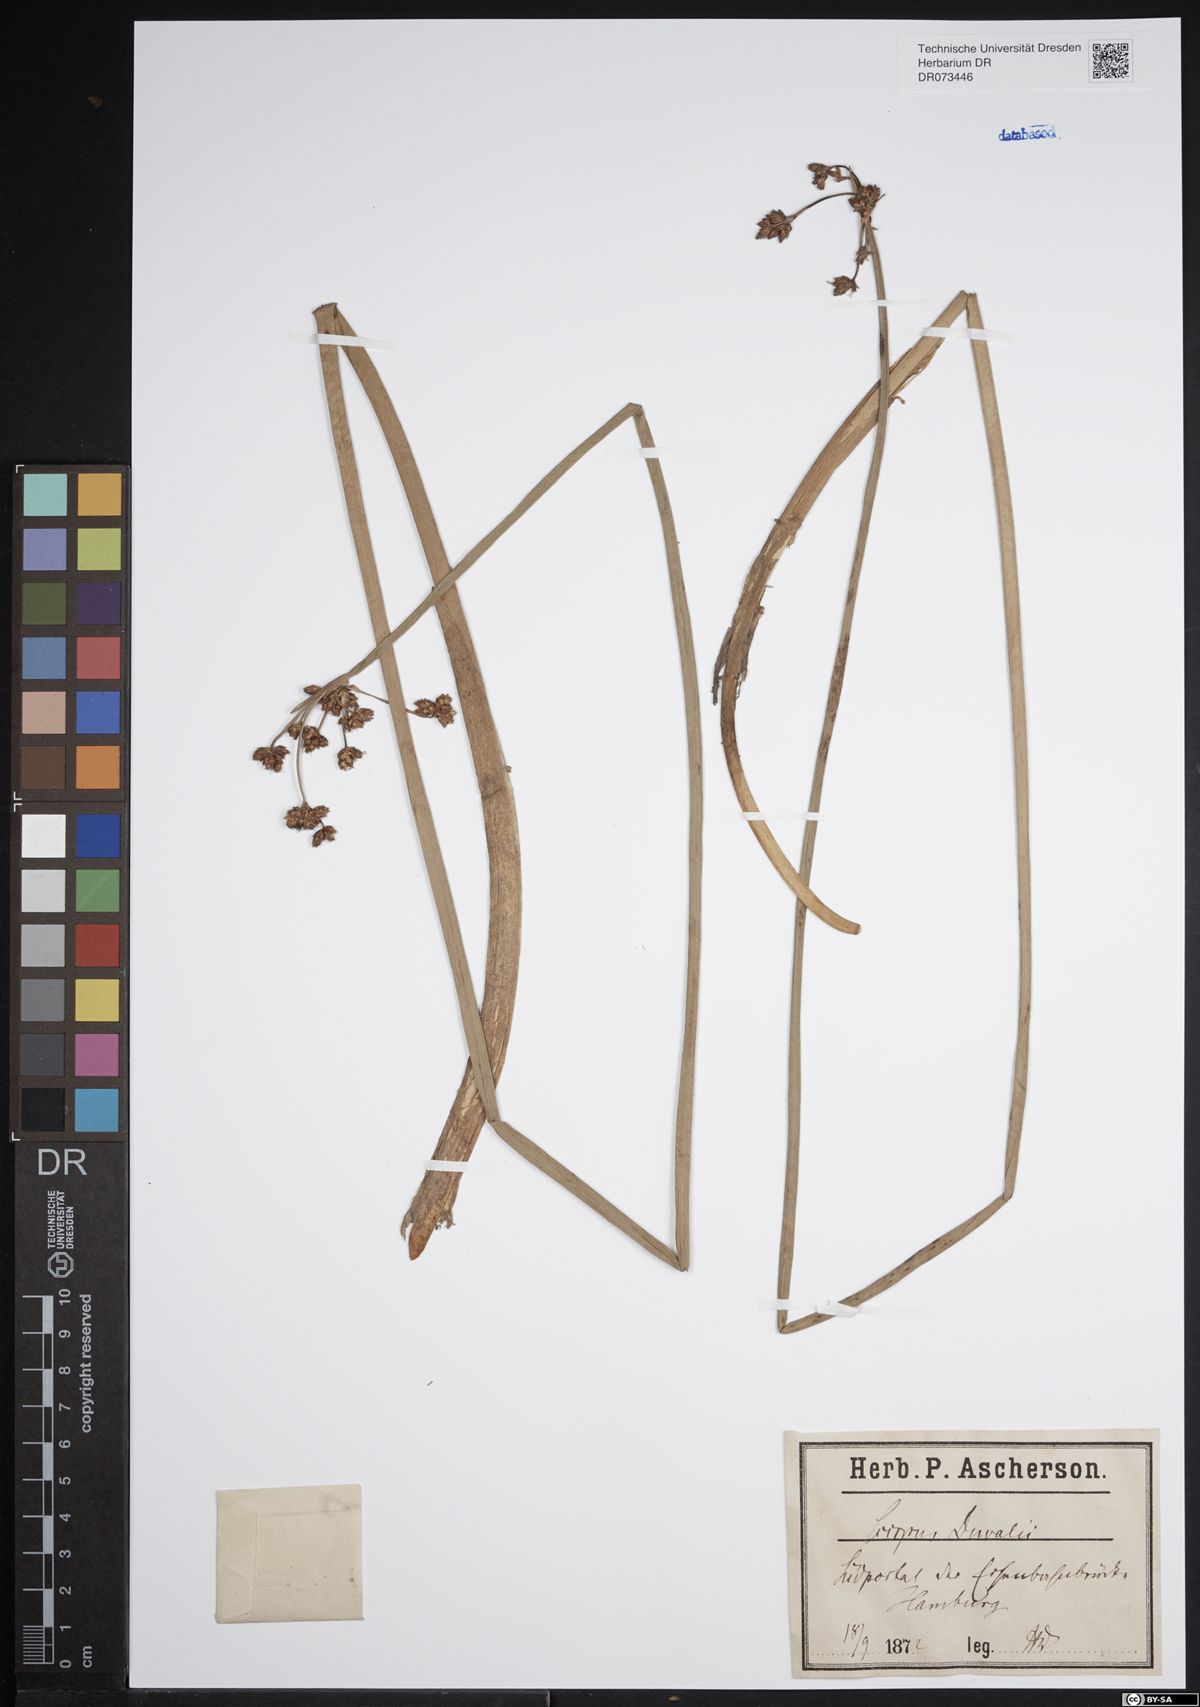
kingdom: Plantae
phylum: Tracheophyta
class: Liliopsida
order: Poales
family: Cyperaceae
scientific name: Cyperaceae
